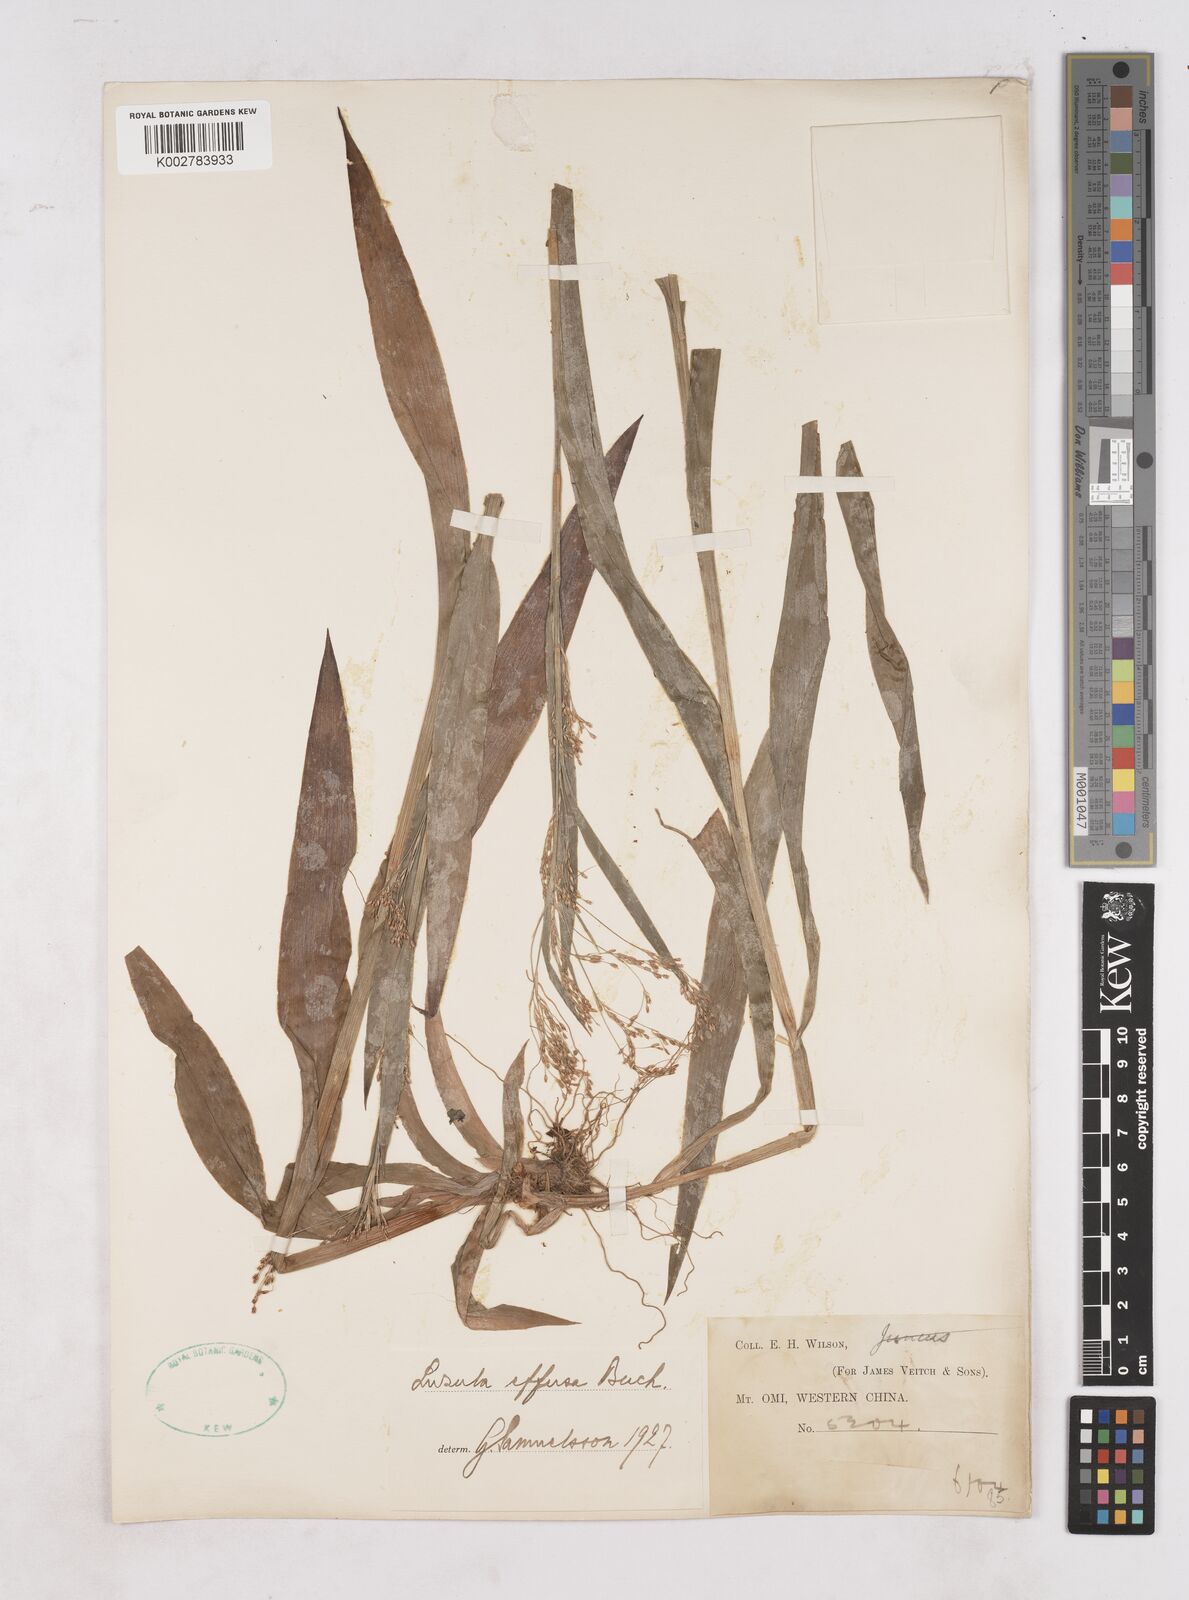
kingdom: Plantae
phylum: Tracheophyta
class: Liliopsida
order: Poales
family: Juncaceae
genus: Luzula
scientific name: Luzula effusa
